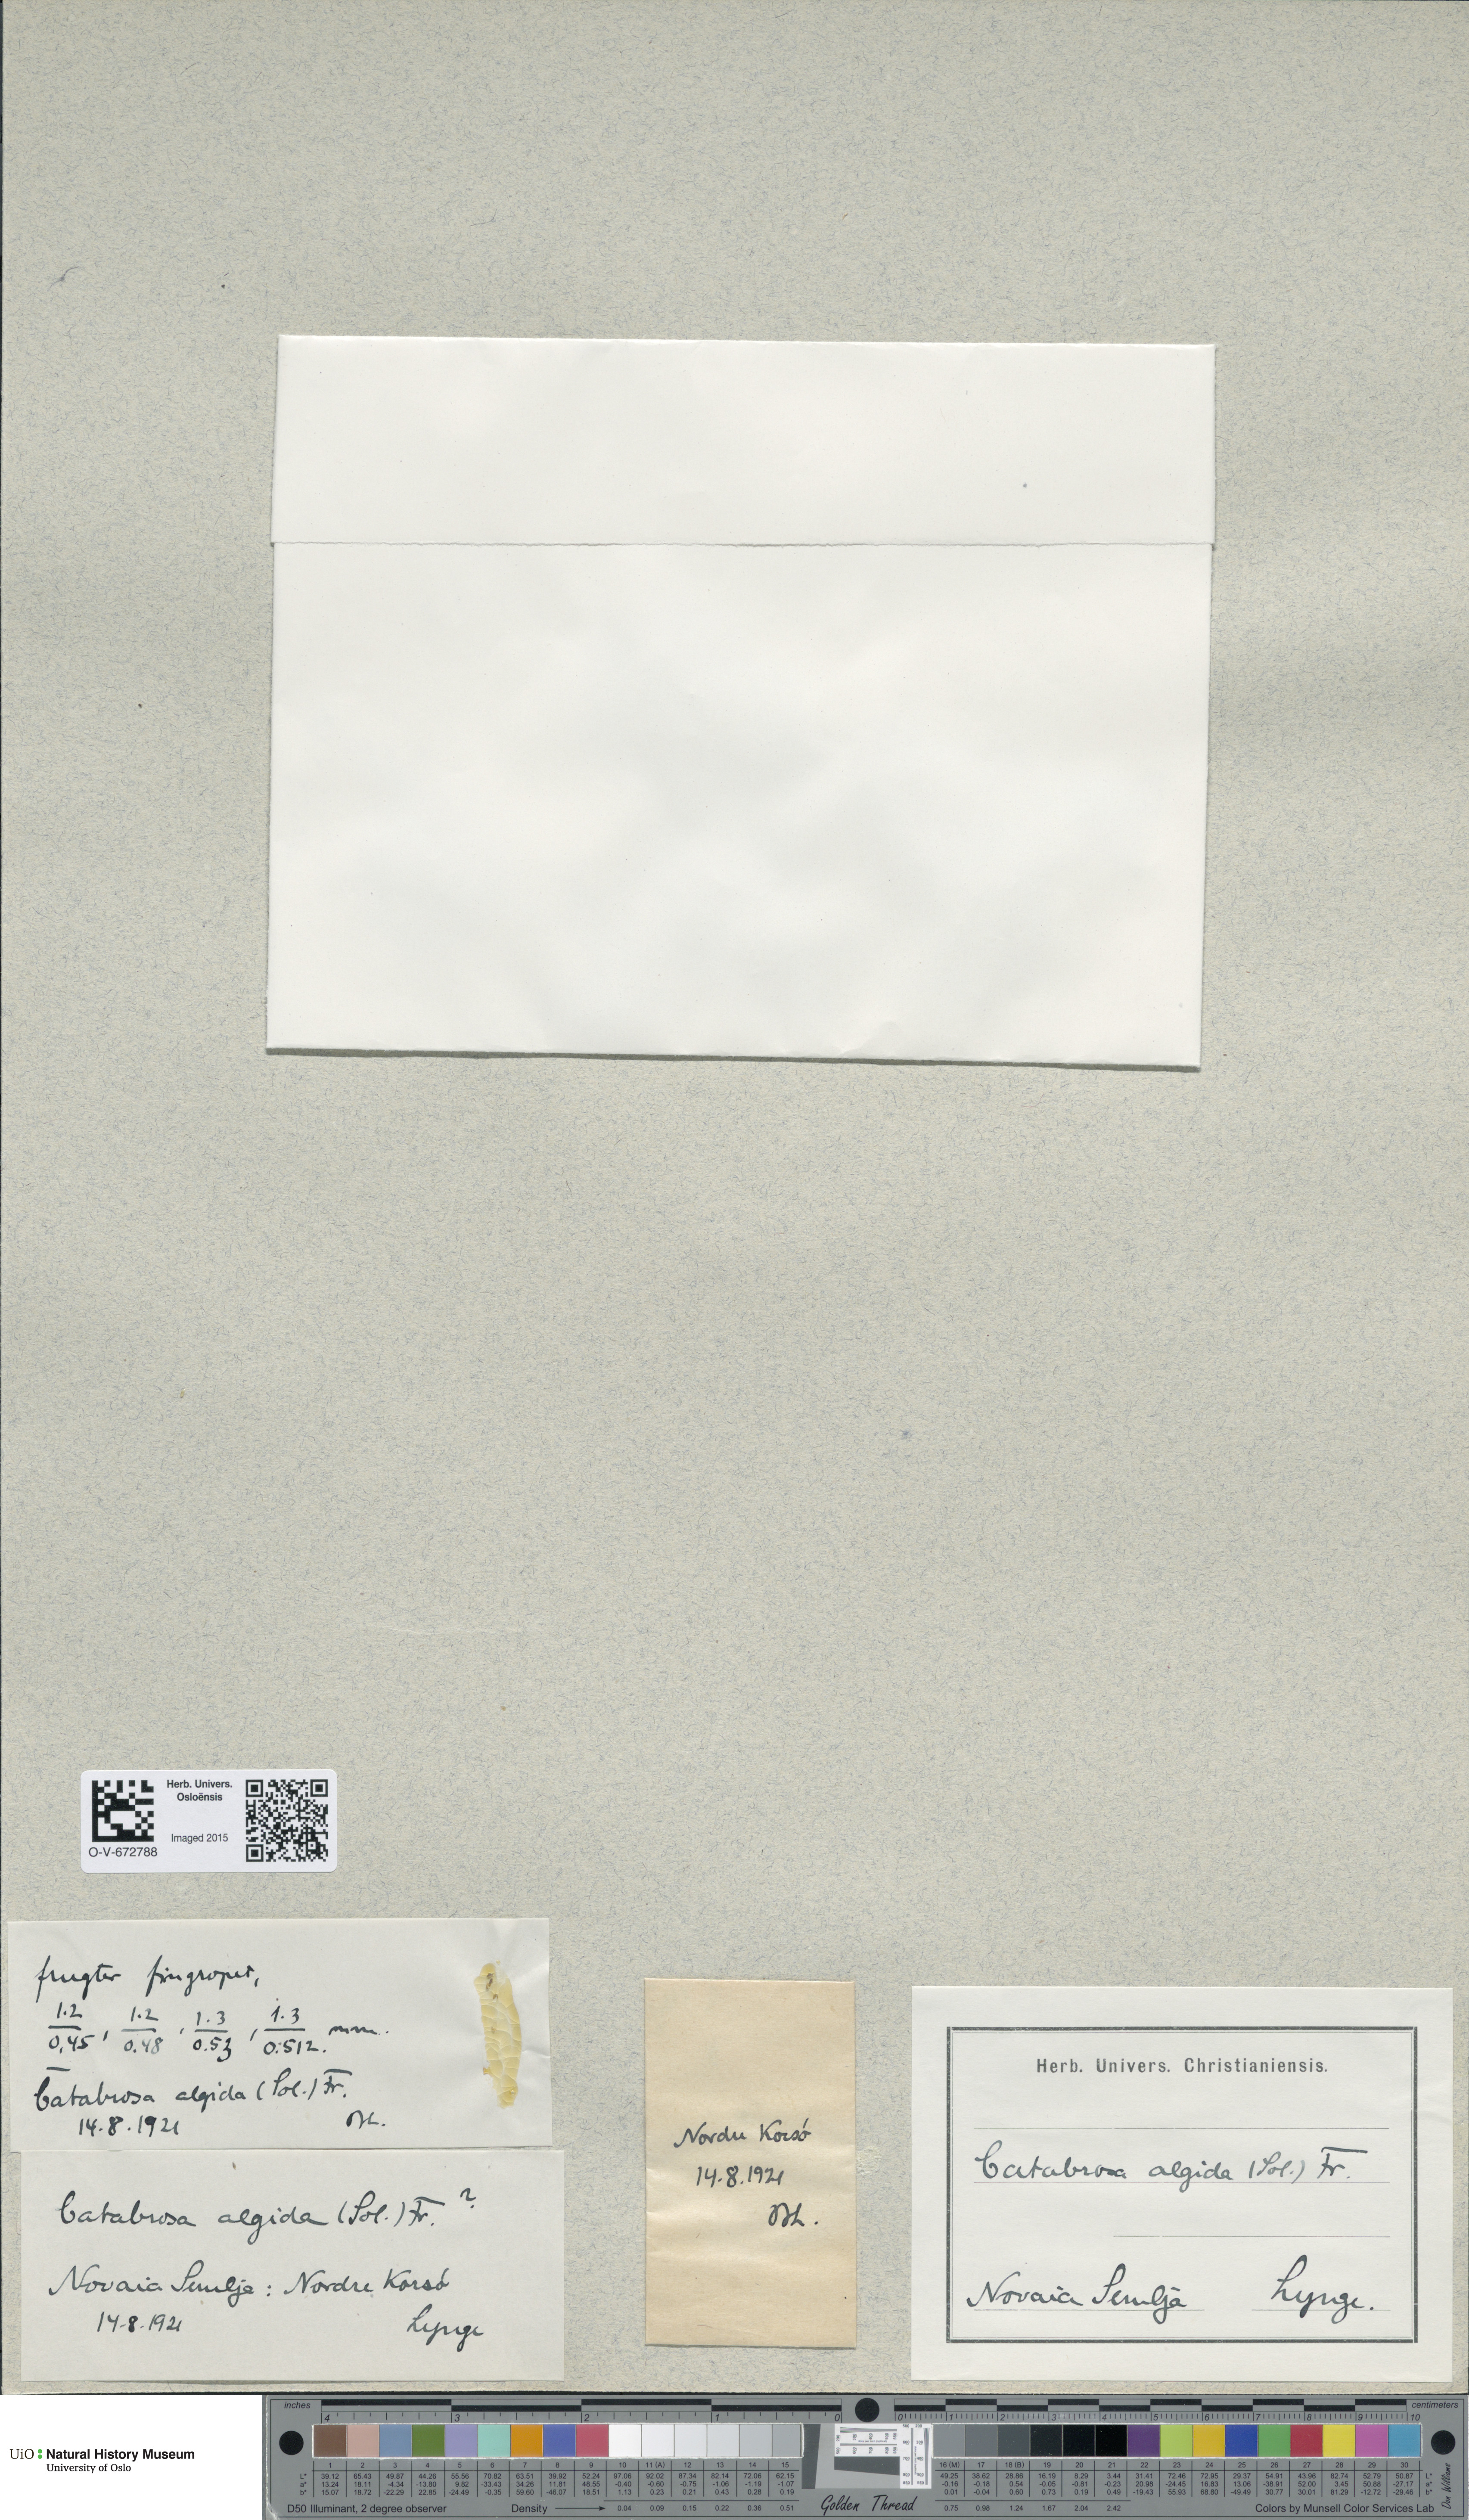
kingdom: Plantae
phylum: Tracheophyta
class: Liliopsida
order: Poales
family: Poaceae
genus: Phippsia
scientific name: Phippsia algida
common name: Ice grass
